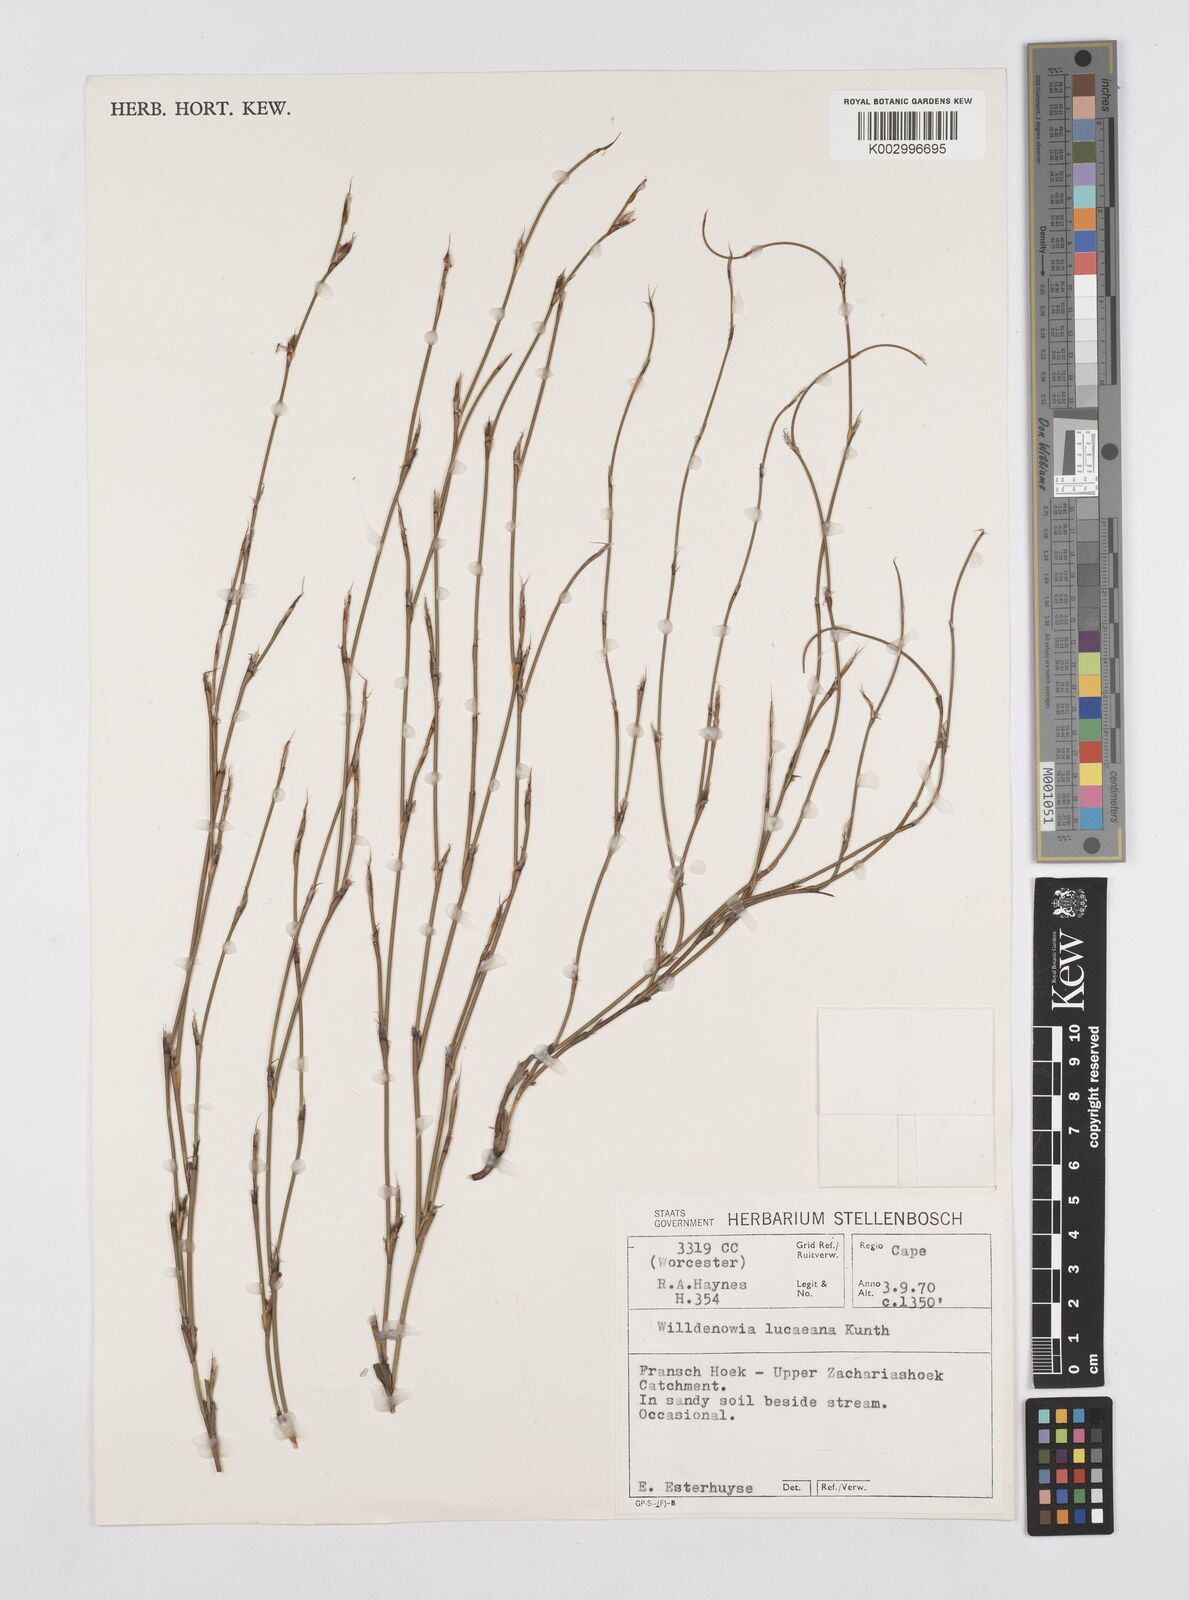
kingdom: Plantae
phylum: Tracheophyta
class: Liliopsida
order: Poales
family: Restionaceae
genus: Willdenowia
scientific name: Willdenowia glomerata
